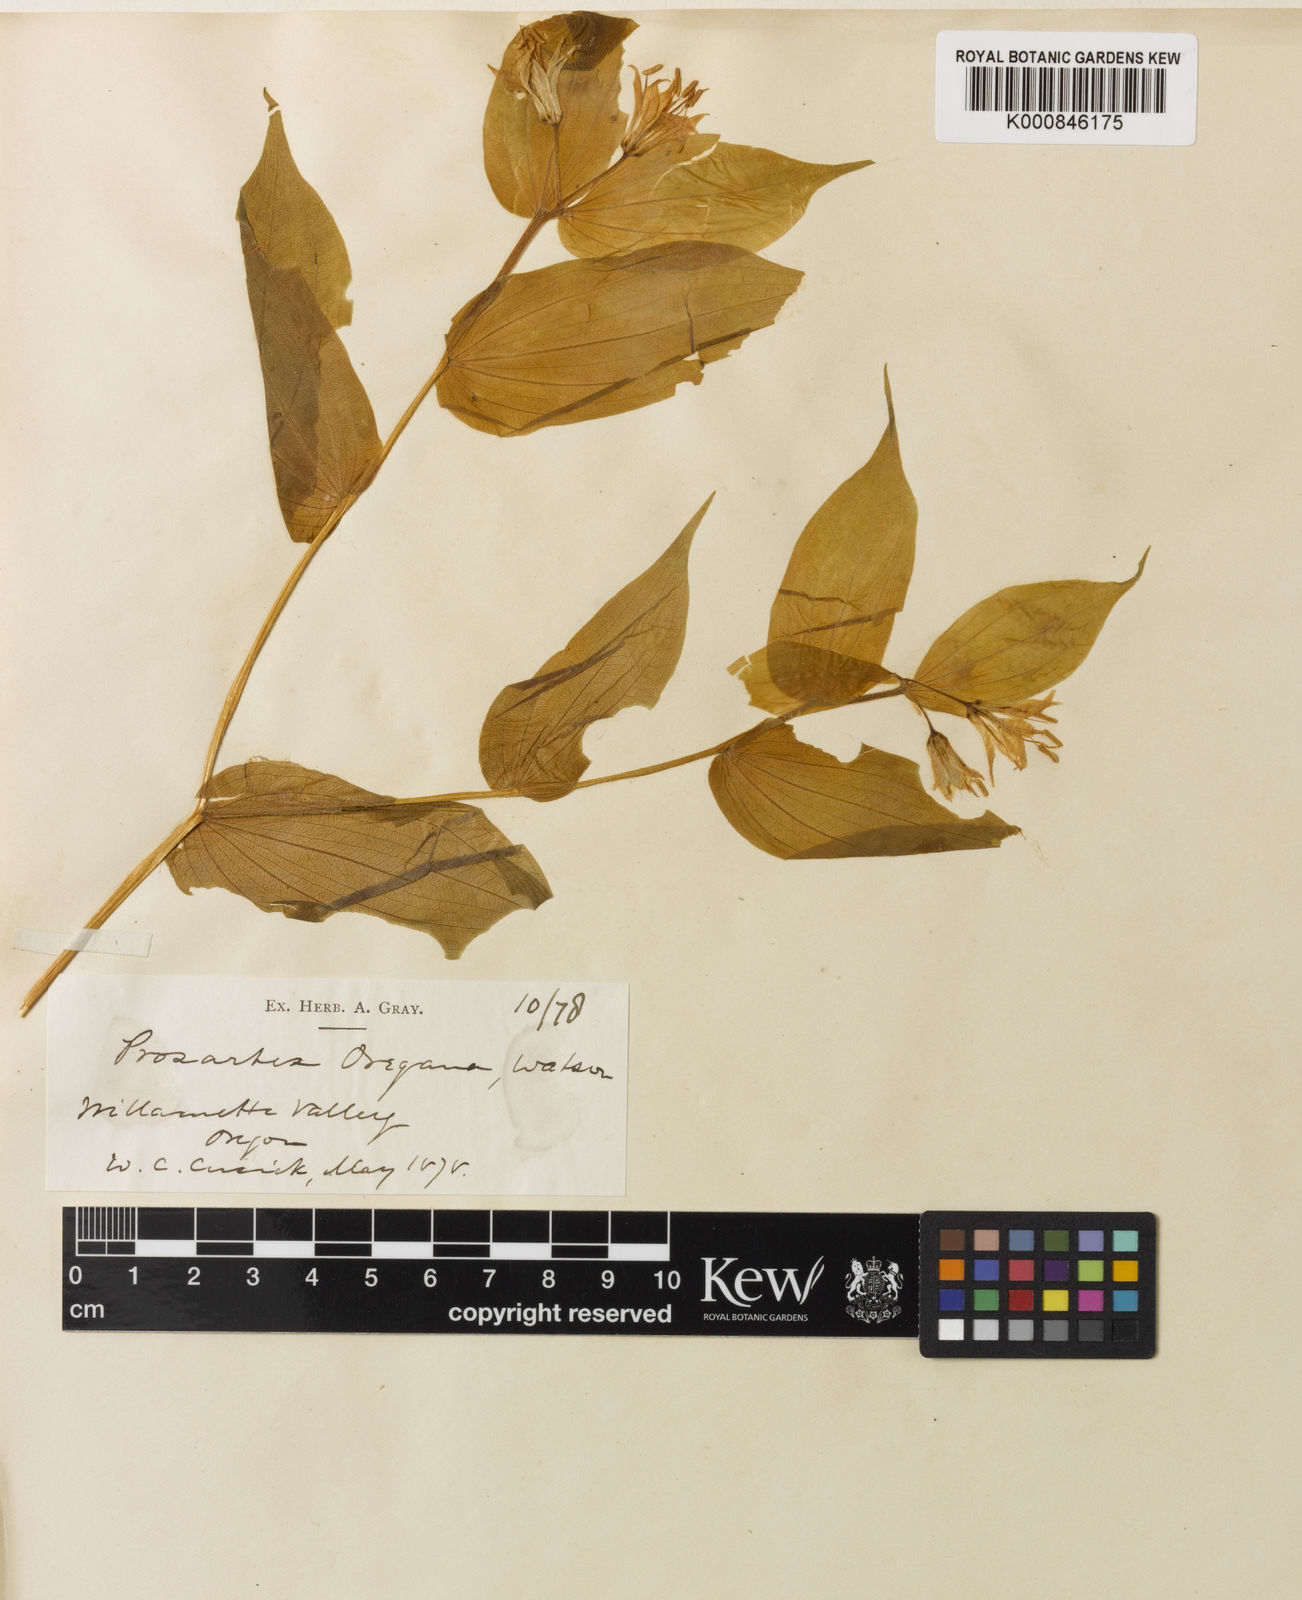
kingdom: Plantae
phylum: Tracheophyta
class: Liliopsida
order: Liliales
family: Liliaceae
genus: Prosartes
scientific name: Prosartes hookeri
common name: Fairy-bells
